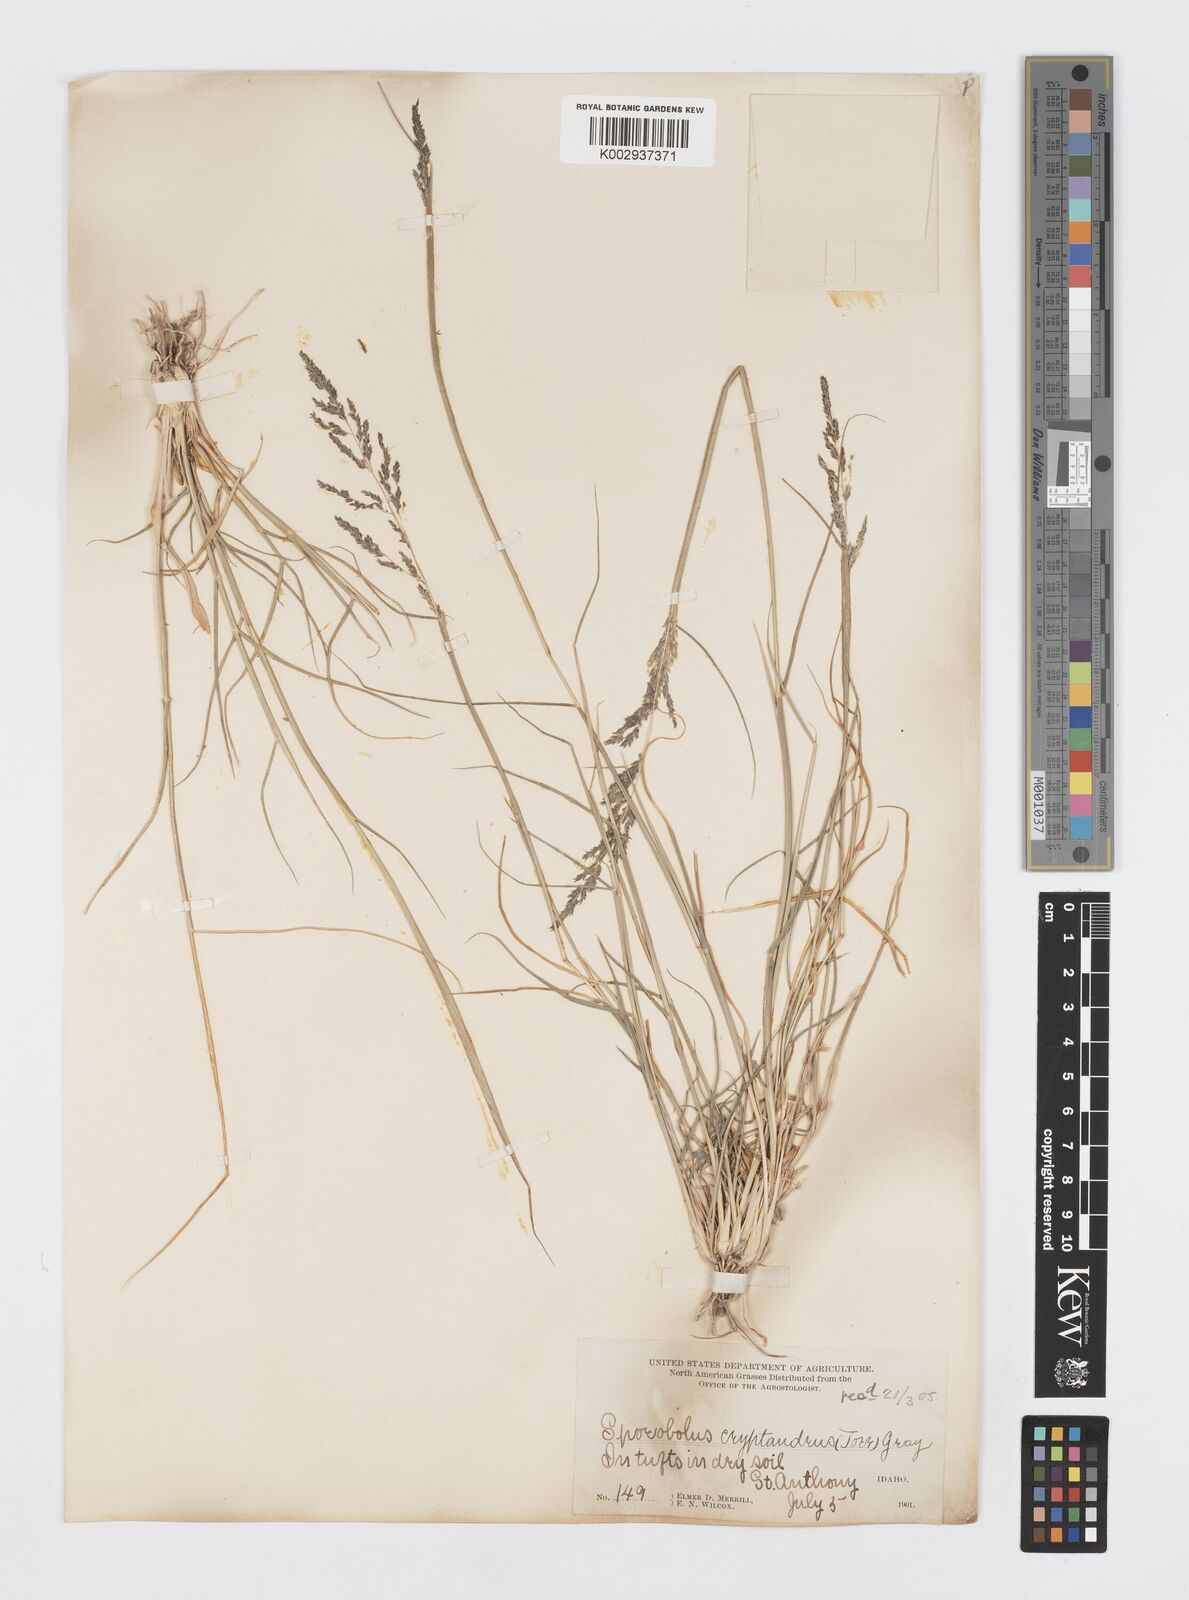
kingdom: Plantae
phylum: Tracheophyta
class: Liliopsida
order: Poales
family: Poaceae
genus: Sporobolus
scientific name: Sporobolus cryptandrus
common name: Sand dropseed
